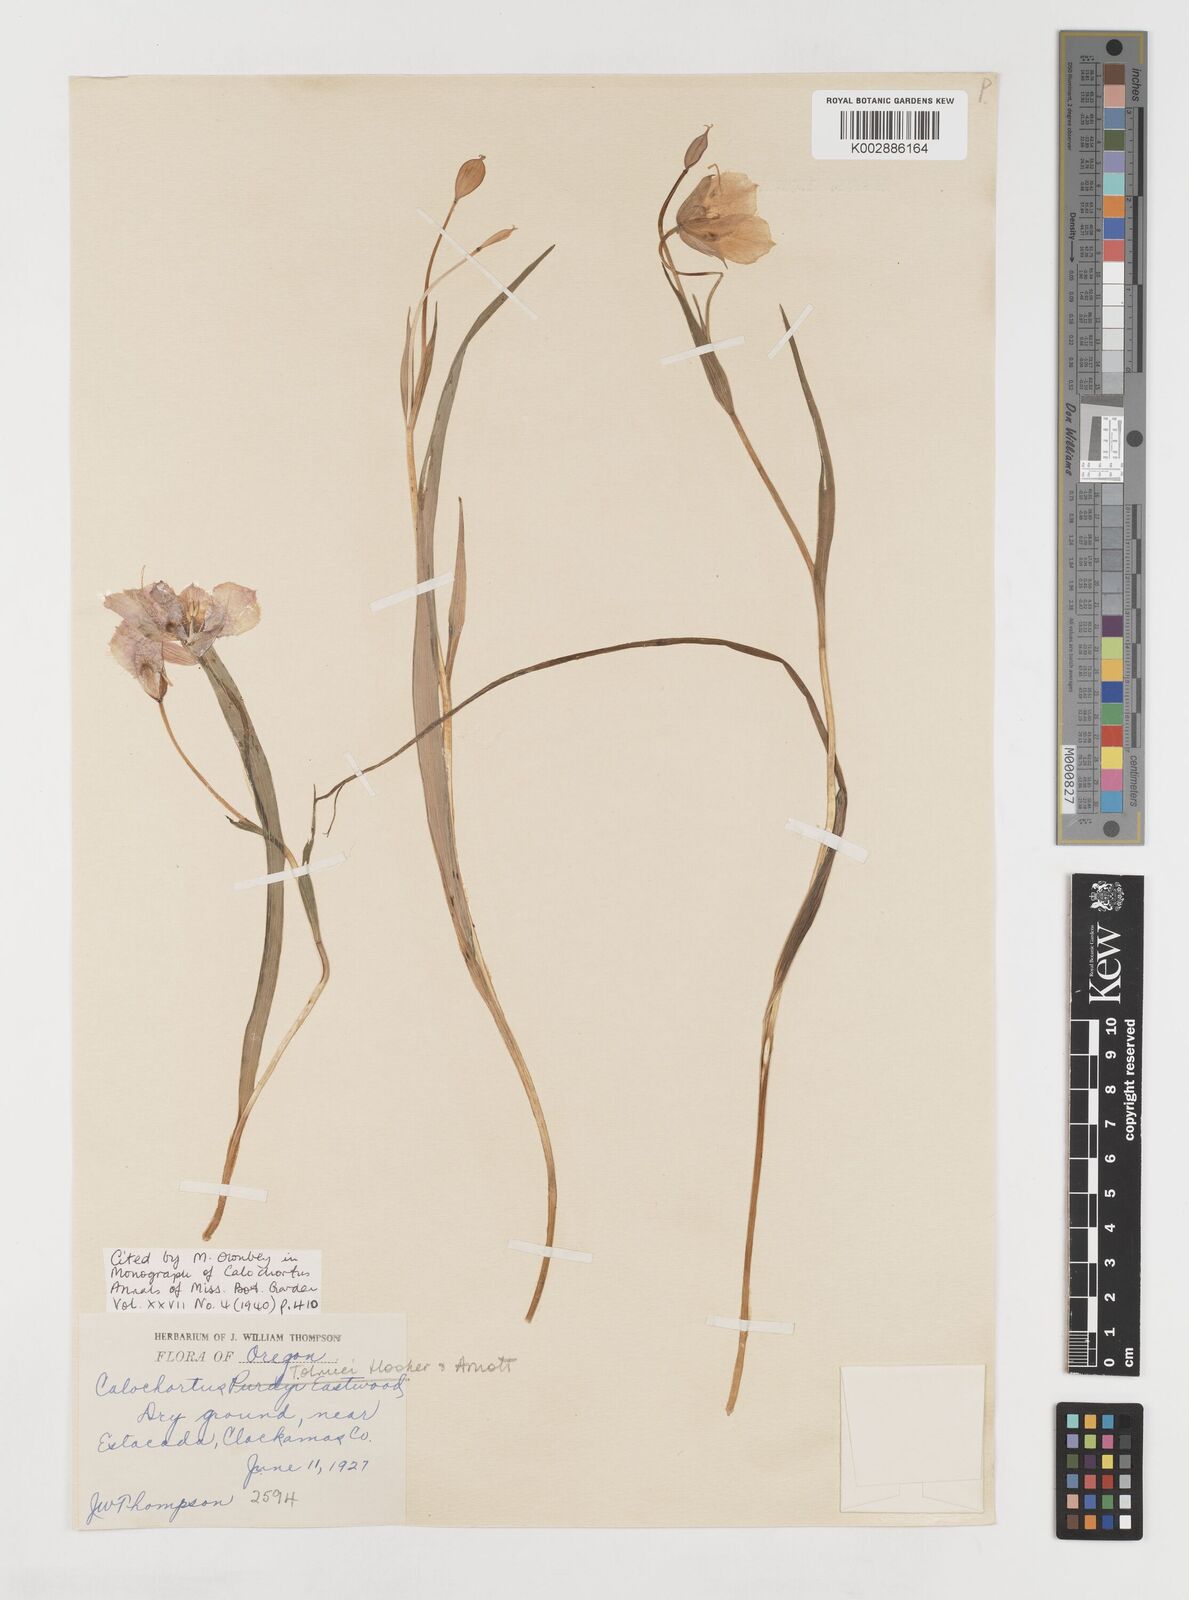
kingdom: Plantae
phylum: Tracheophyta
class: Liliopsida
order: Liliales
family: Liliaceae
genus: Calochortus
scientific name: Calochortus tolmiei
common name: Pussy-ears
